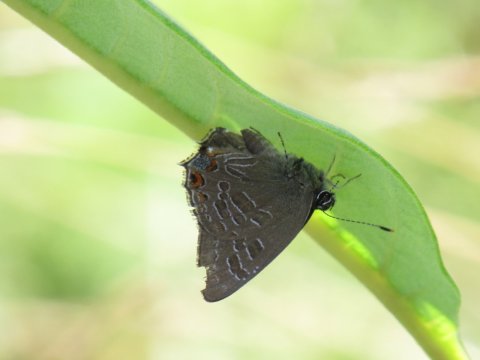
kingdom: Animalia
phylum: Arthropoda
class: Insecta
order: Lepidoptera
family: Lycaenidae
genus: Satyrium
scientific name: Satyrium liparops
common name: Striped Hairstreak
